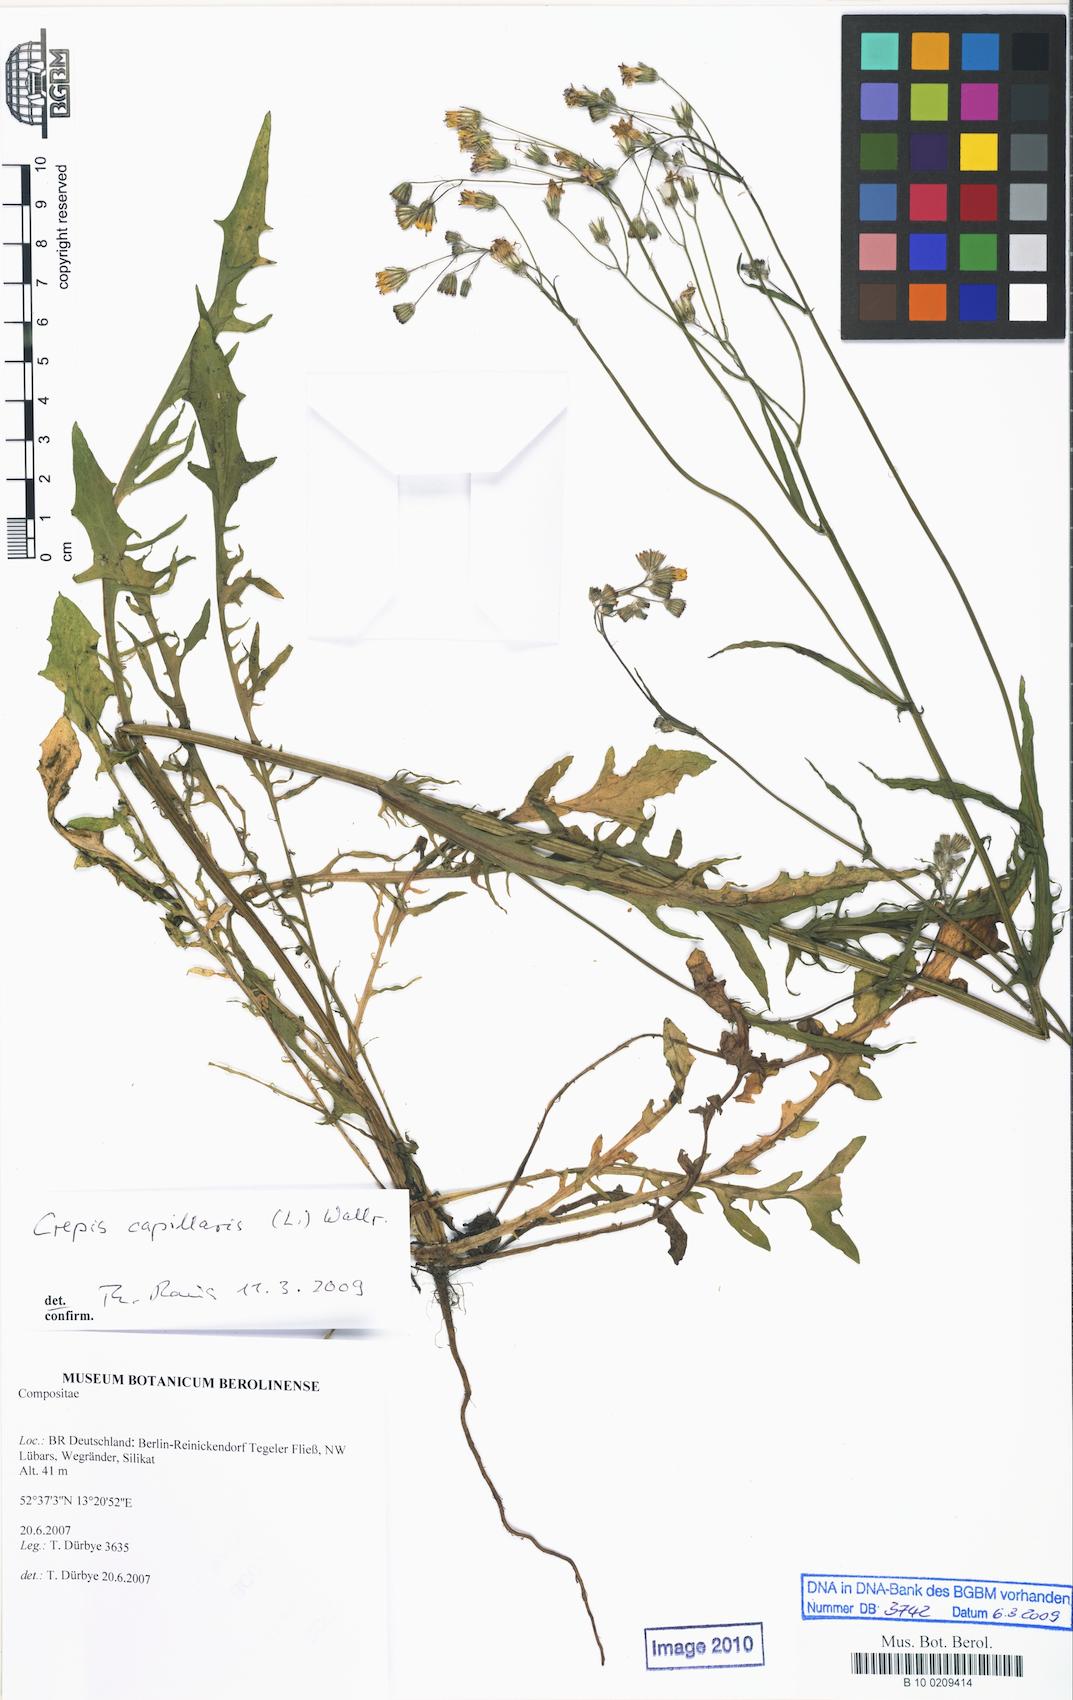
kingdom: Plantae
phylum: Tracheophyta
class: Magnoliopsida
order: Asterales
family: Asteraceae
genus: Crepis
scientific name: Crepis capillaris
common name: Smooth hawksbeard
